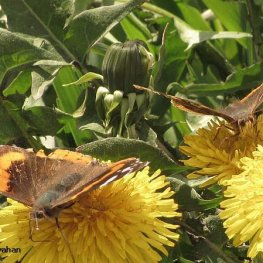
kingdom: Animalia
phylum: Arthropoda
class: Insecta
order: Lepidoptera
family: Nymphalidae
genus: Vanessa
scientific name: Vanessa atalanta
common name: Red Admiral
